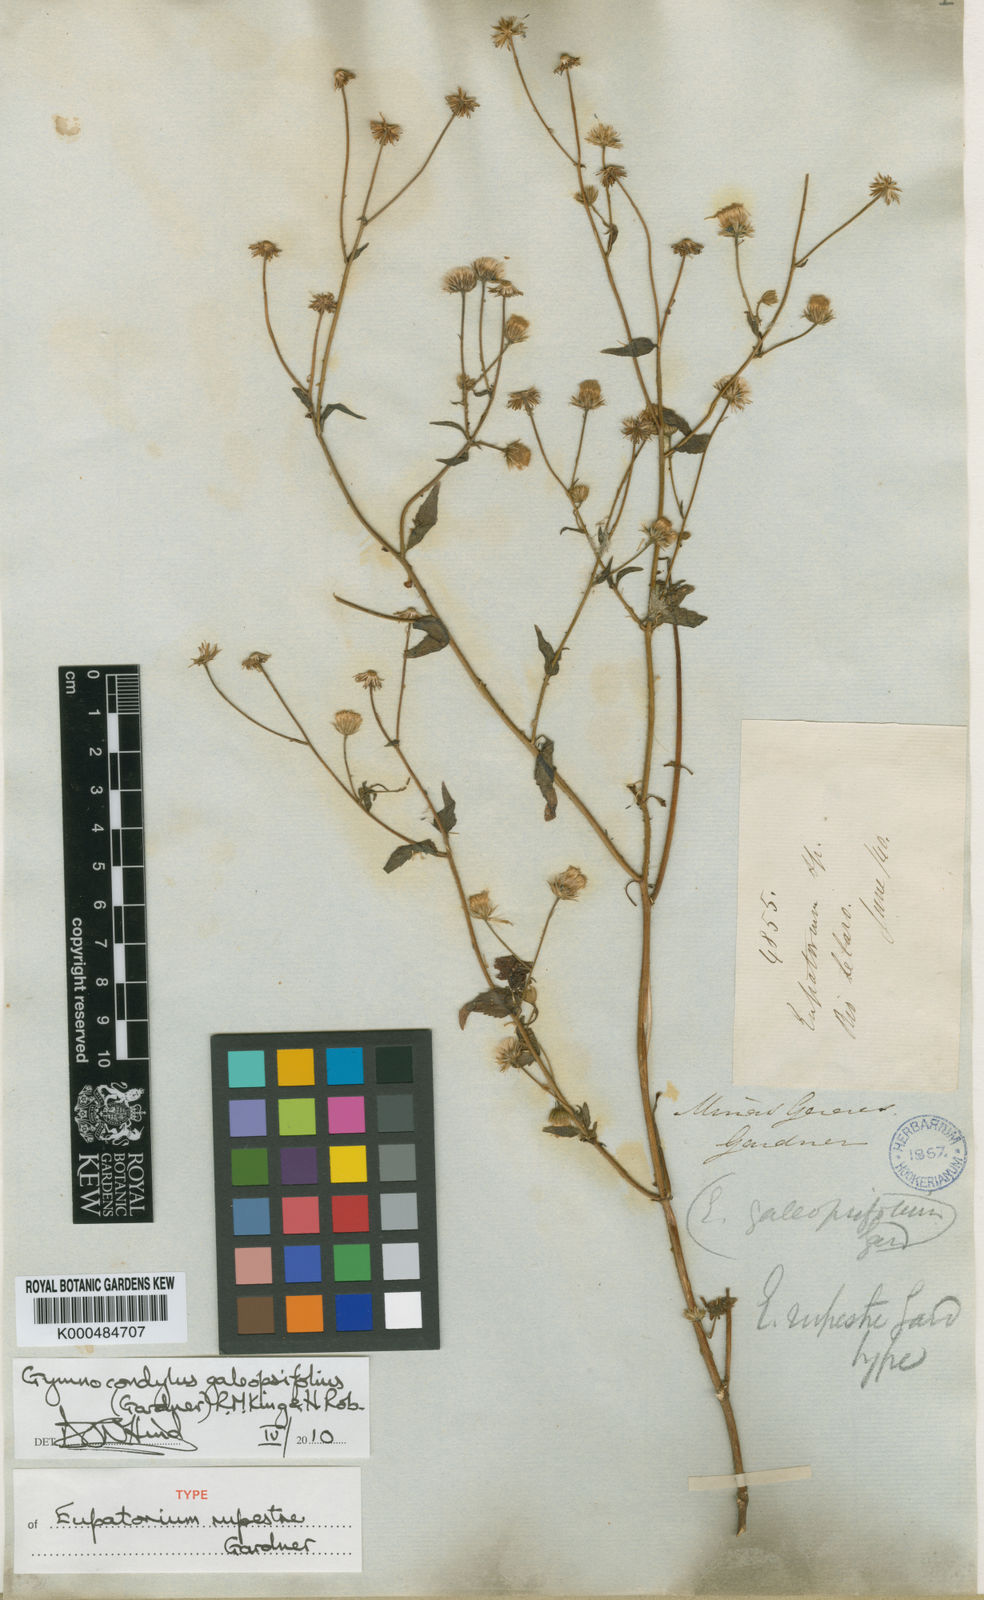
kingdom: Plantae
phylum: Tracheophyta
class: Magnoliopsida
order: Asterales
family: Asteraceae
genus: Gymnocondylus
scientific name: Gymnocondylus galeopsifolius
